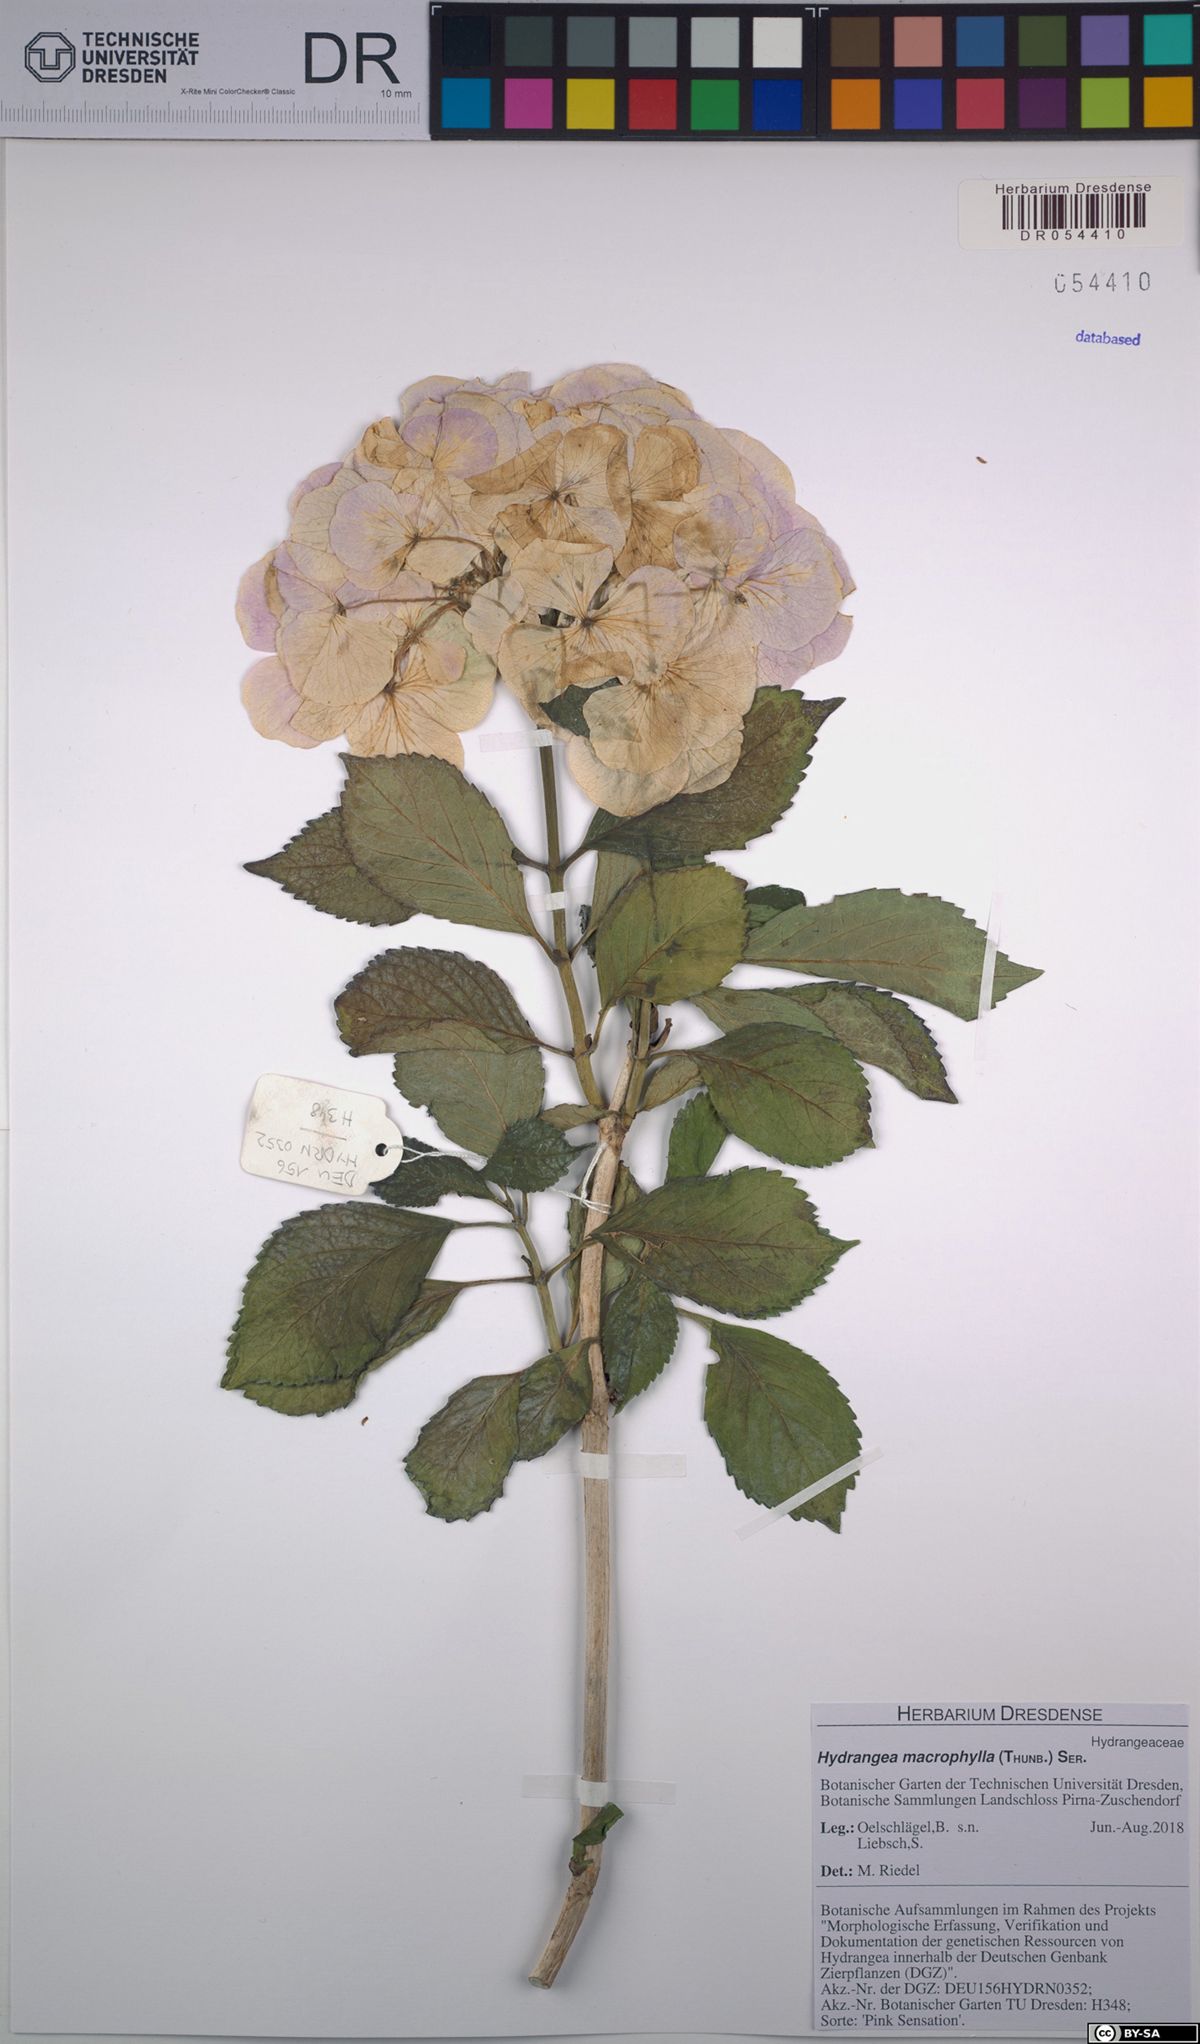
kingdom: Plantae
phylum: Tracheophyta
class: Magnoliopsida
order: Cornales
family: Hydrangeaceae
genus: Hydrangea
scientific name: Hydrangea macrophylla
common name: Hydrangea
